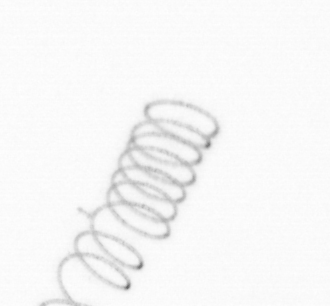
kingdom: Chromista
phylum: Ochrophyta
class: Bacillariophyceae
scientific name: Bacillariophyceae
